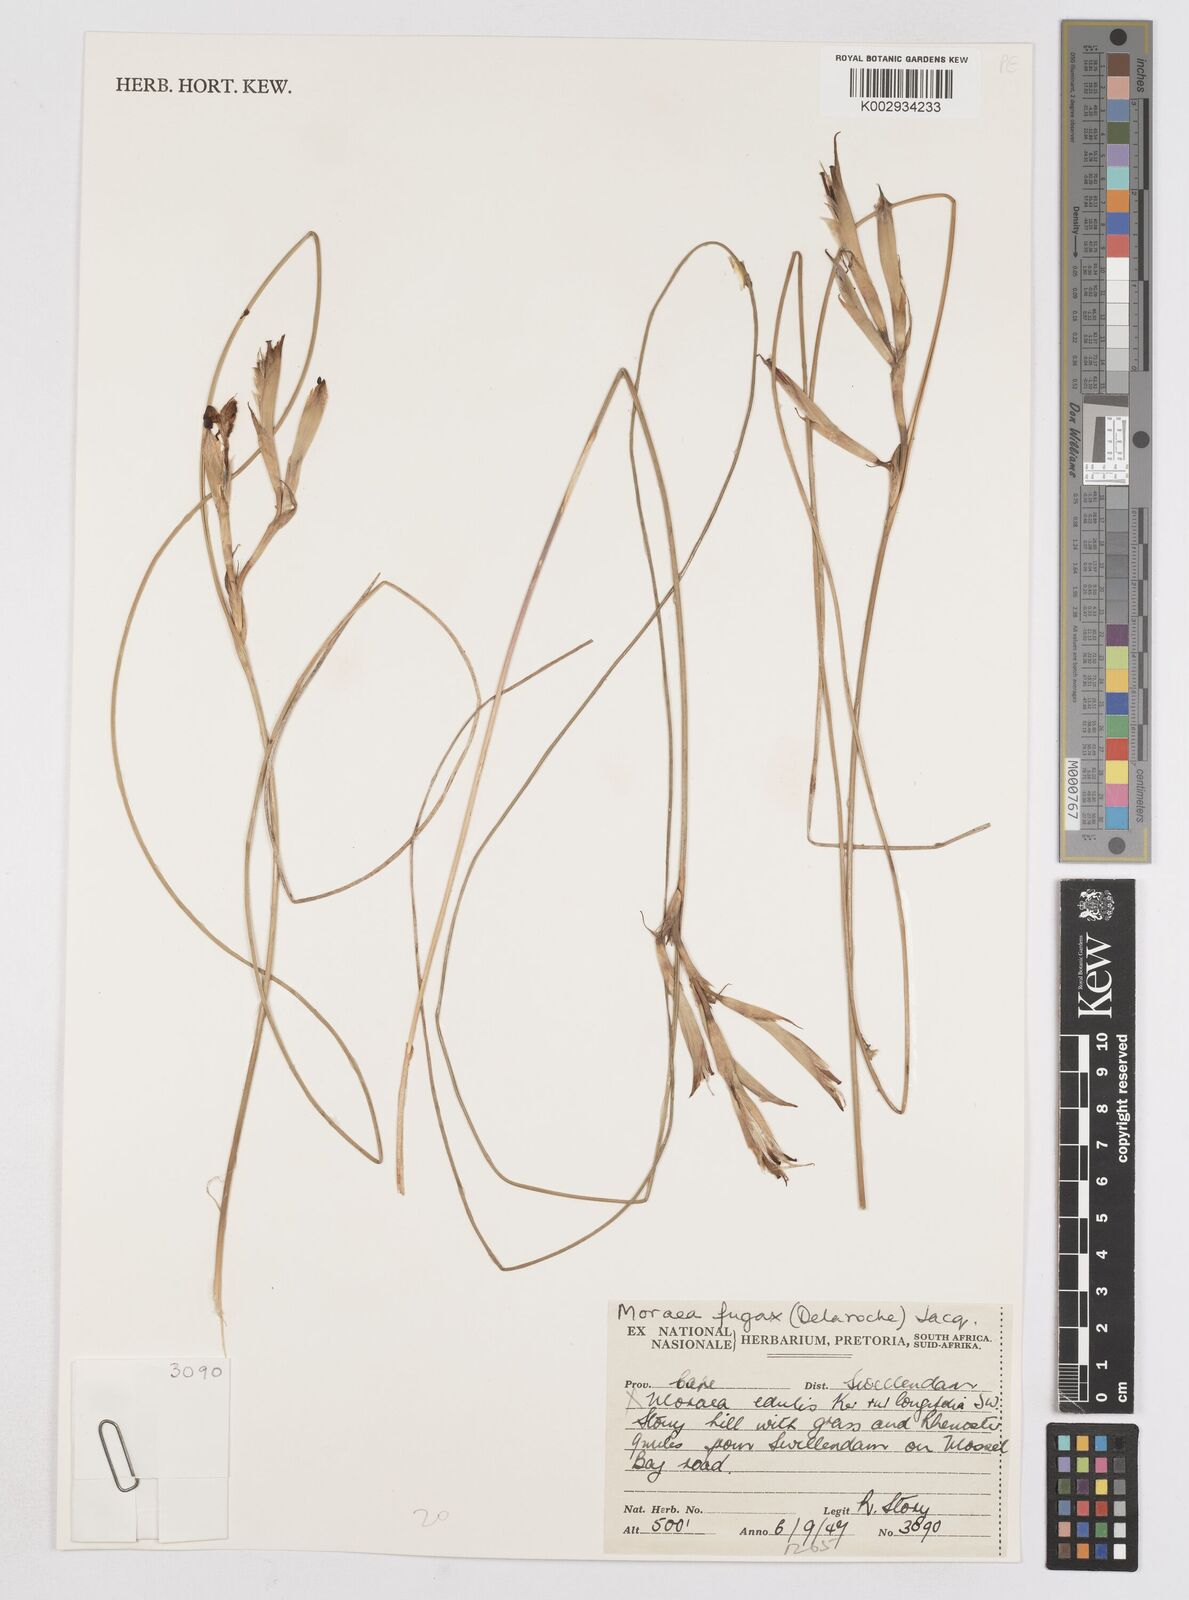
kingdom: Plantae
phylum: Tracheophyta
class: Liliopsida
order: Asparagales
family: Iridaceae
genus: Moraea
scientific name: Moraea fugax
